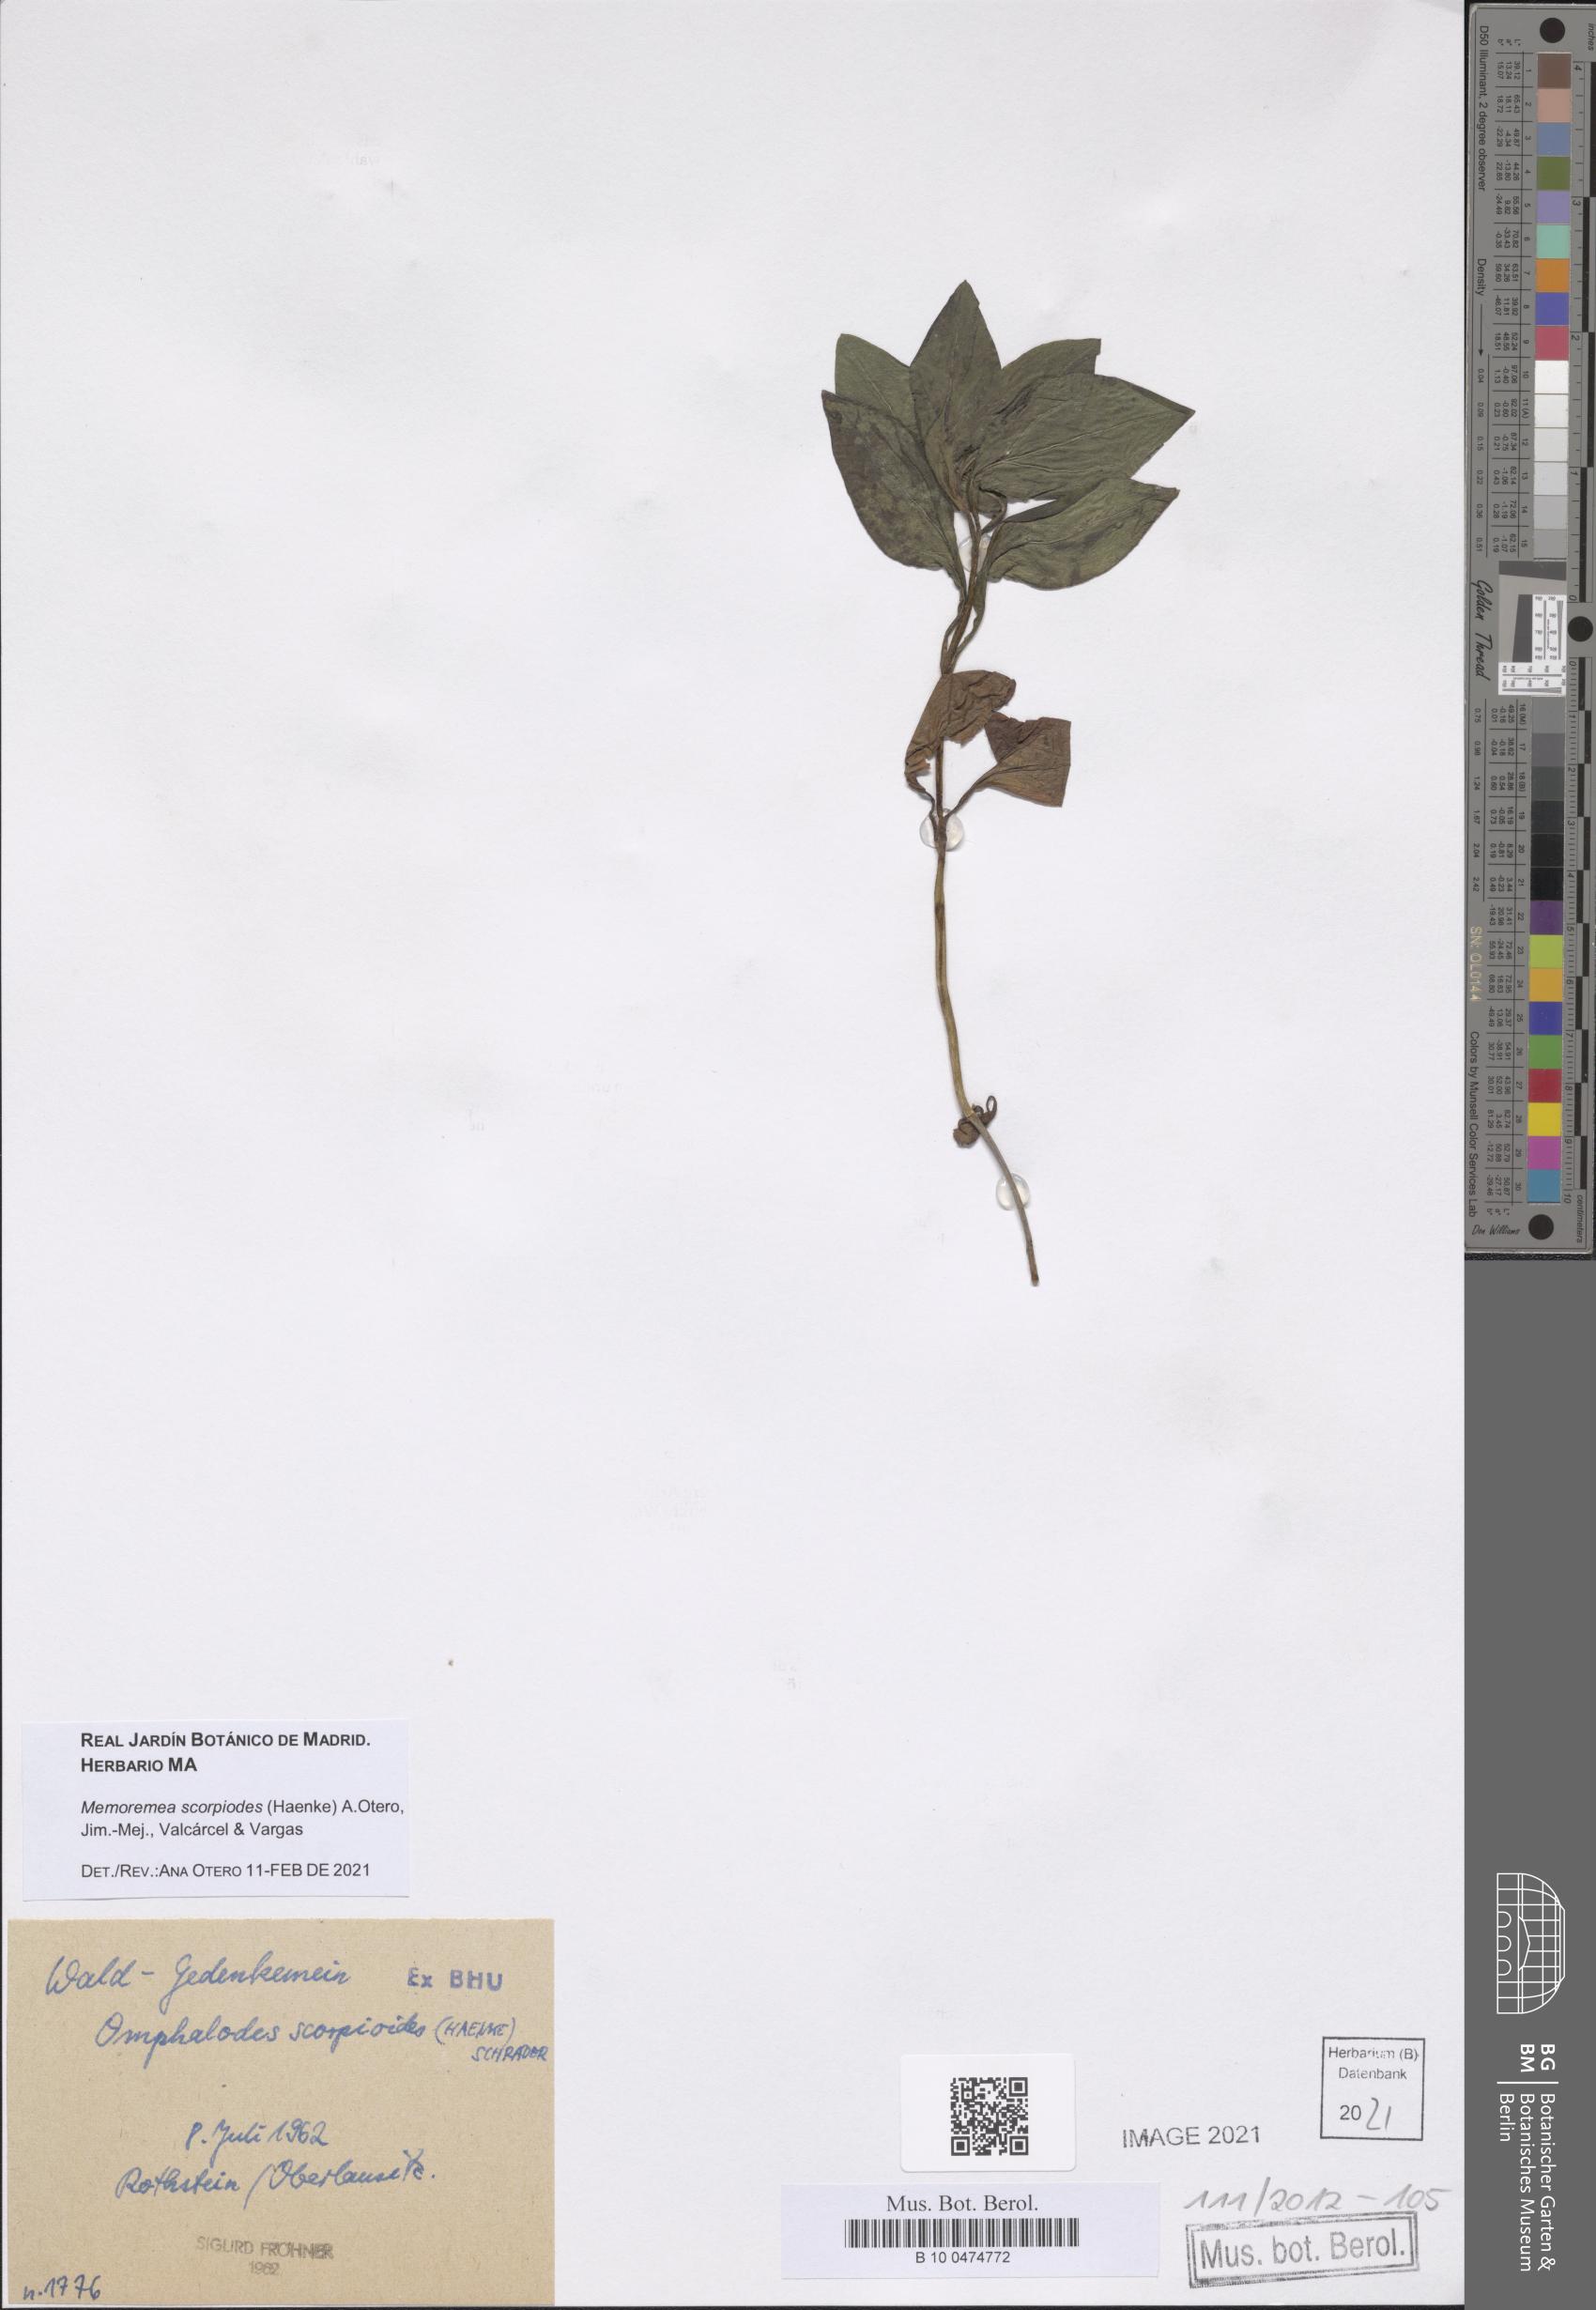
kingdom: Plantae
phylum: Tracheophyta
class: Magnoliopsida
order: Boraginales
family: Boraginaceae
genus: Memoremea
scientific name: Memoremea scorpioides
